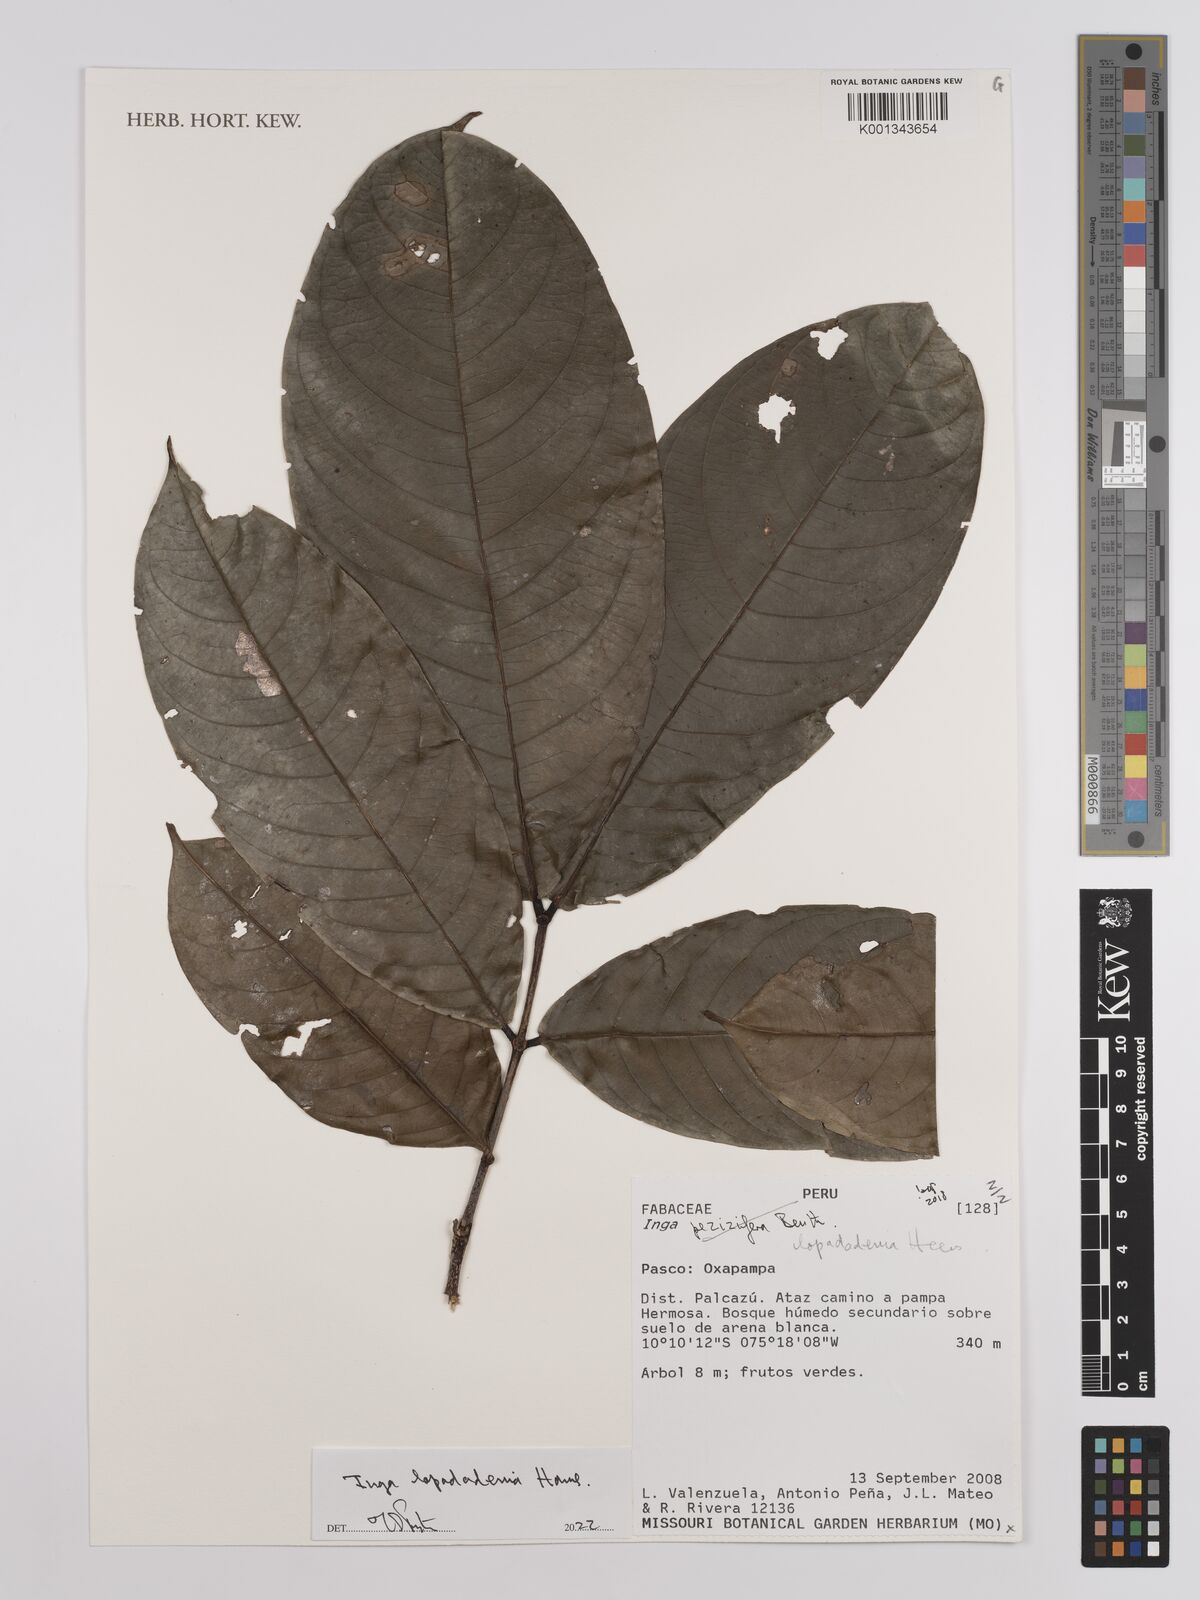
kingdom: Plantae
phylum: Tracheophyta
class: Magnoliopsida
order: Fabales
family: Fabaceae
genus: Inga
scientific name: Inga pezizifera
